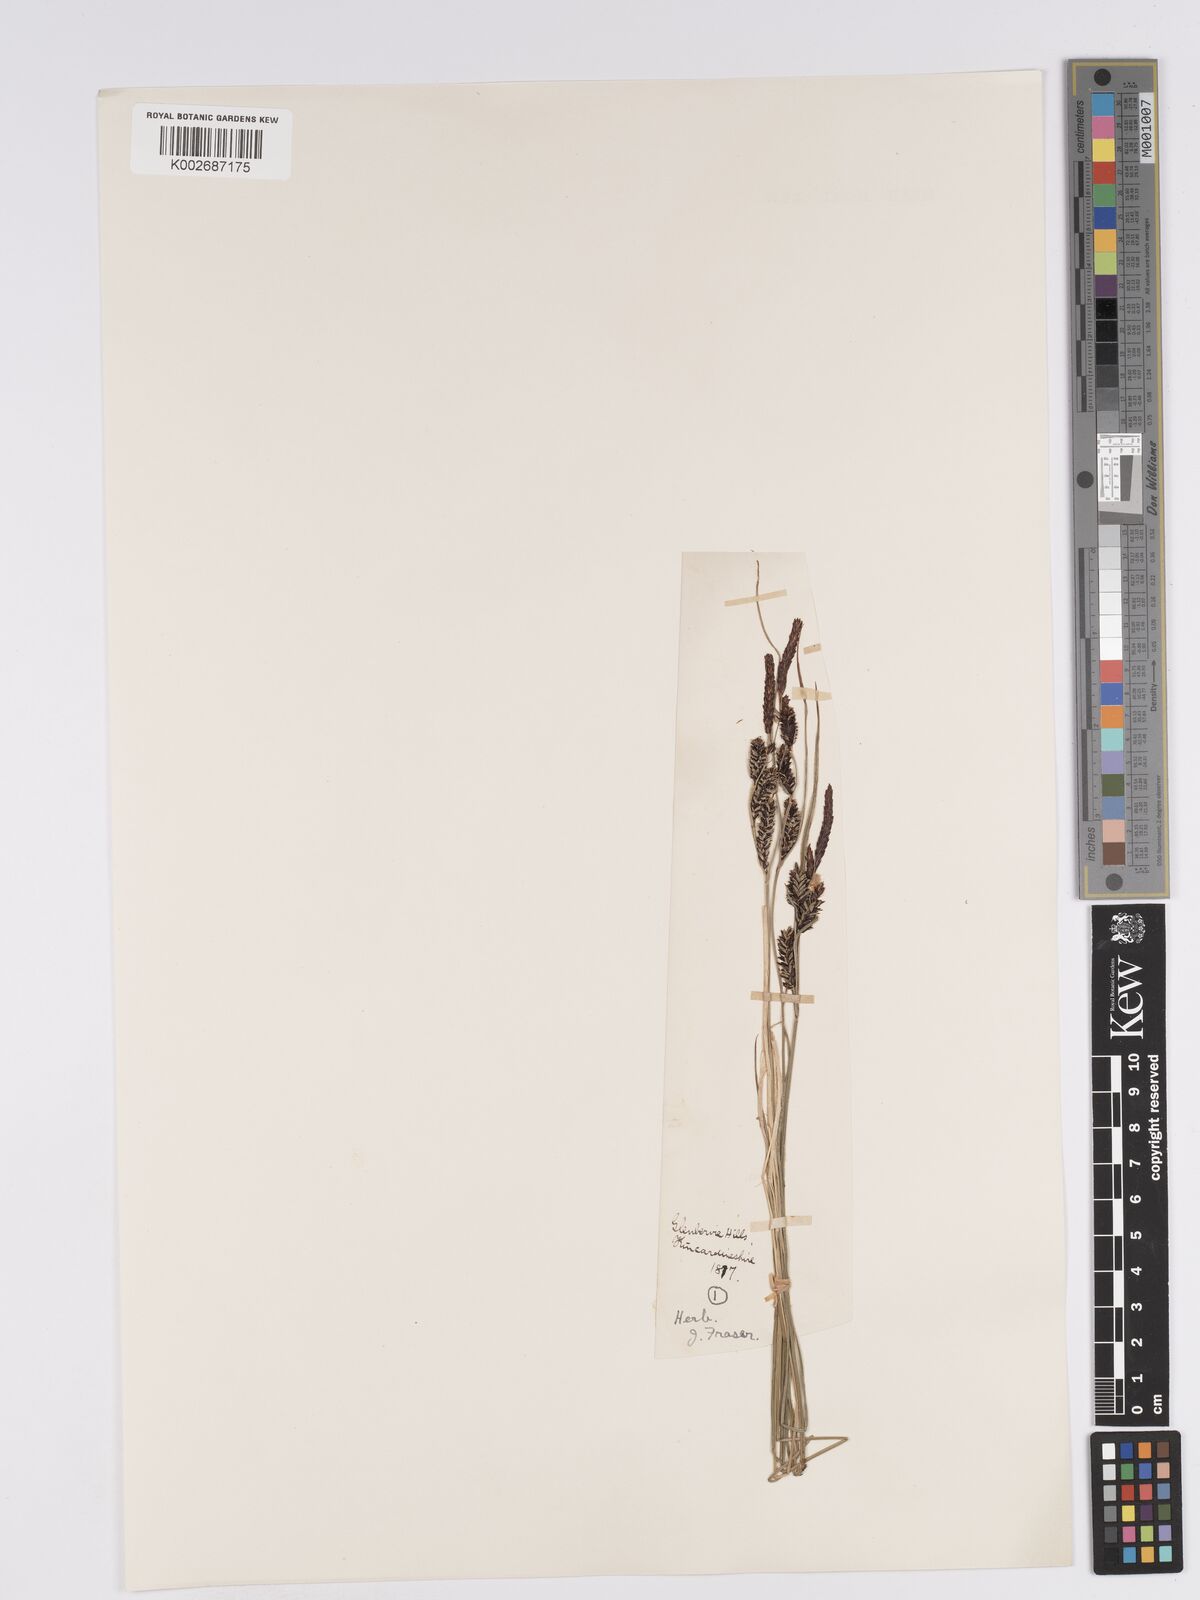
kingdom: Plantae
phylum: Tracheophyta
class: Liliopsida
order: Poales
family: Cyperaceae
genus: Carex
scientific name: Carex nigra
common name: Common sedge
